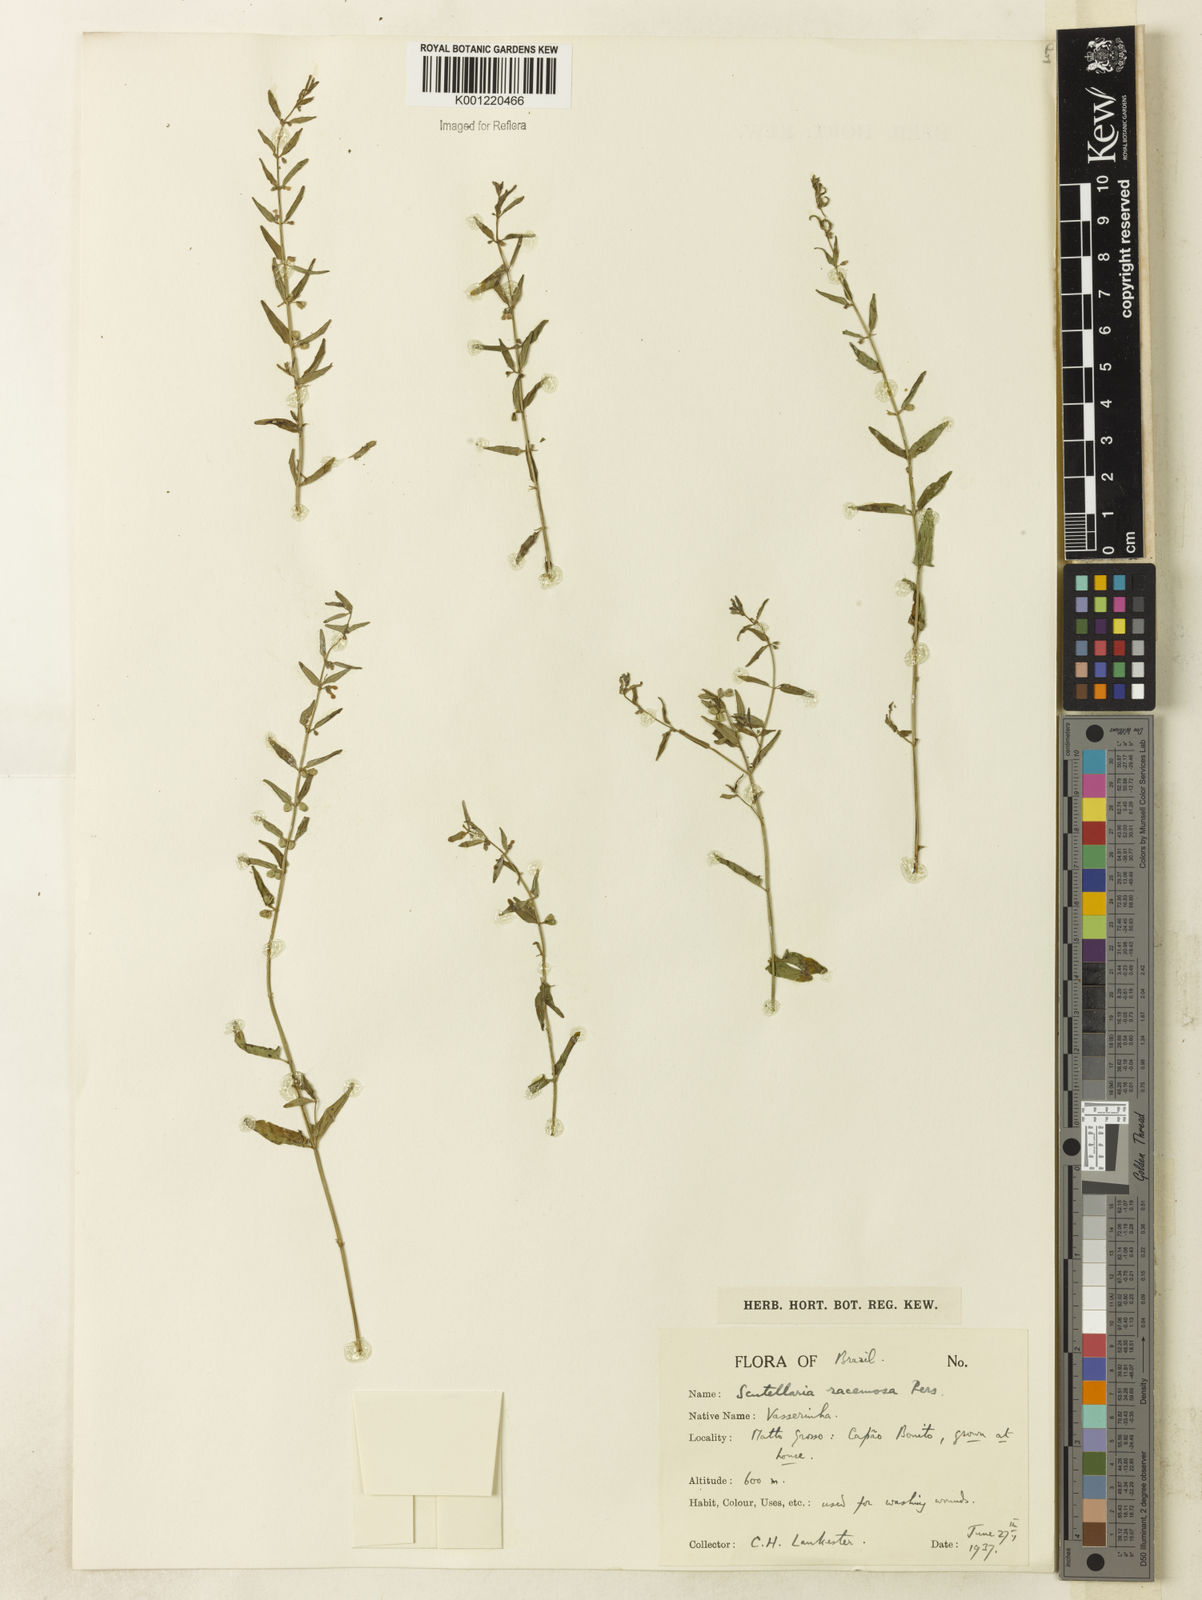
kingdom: Plantae
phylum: Tracheophyta
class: Magnoliopsida
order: Lamiales
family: Lamiaceae
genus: Scutellaria
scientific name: Scutellaria racemosa
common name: South american skullcap
